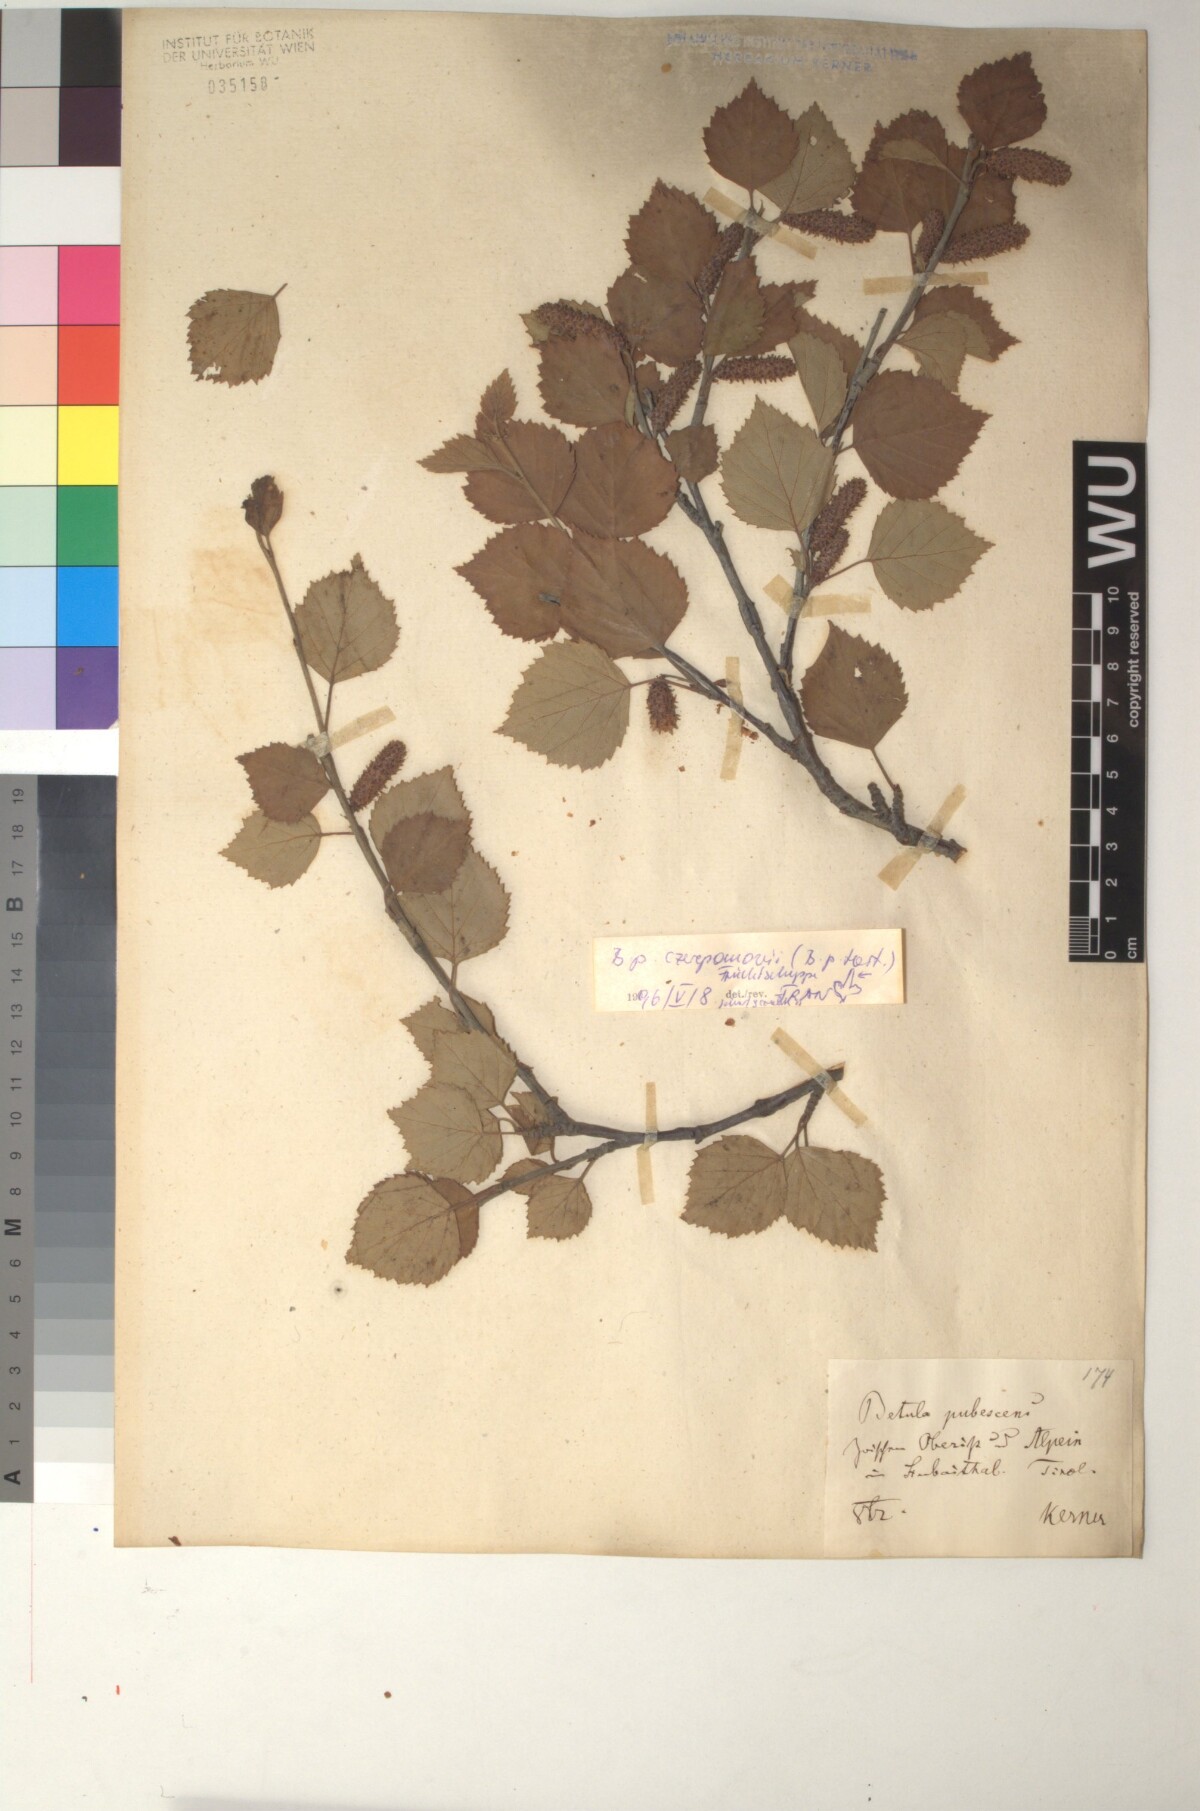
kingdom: Plantae
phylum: Tracheophyta
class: Magnoliopsida
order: Fagales
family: Betulaceae
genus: Betula
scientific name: Betula pubescens
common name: Downy birch
